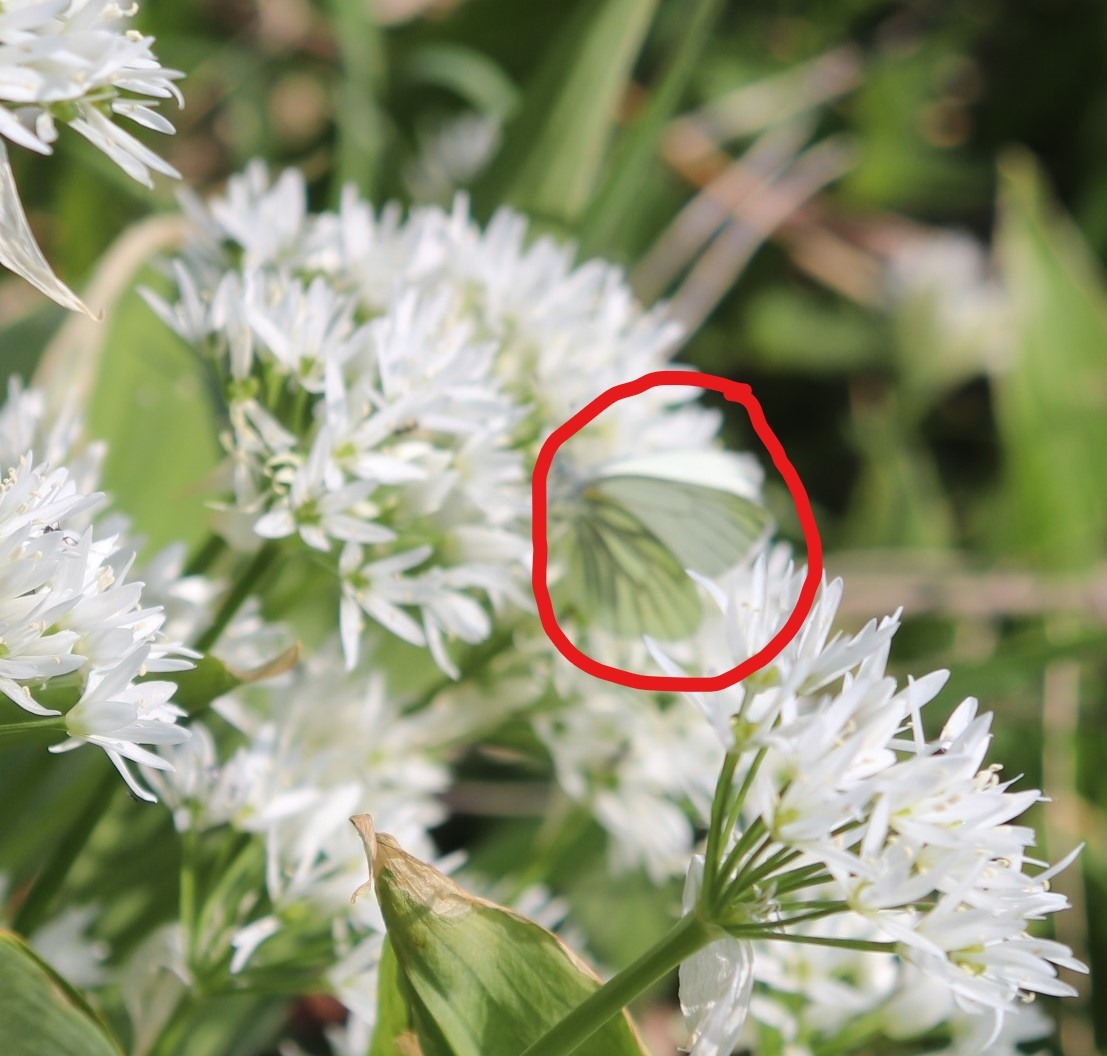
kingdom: Animalia
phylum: Arthropoda
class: Insecta
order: Lepidoptera
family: Pieridae
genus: Pieris
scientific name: Pieris napi
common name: Grønåret kålsommerfugl
